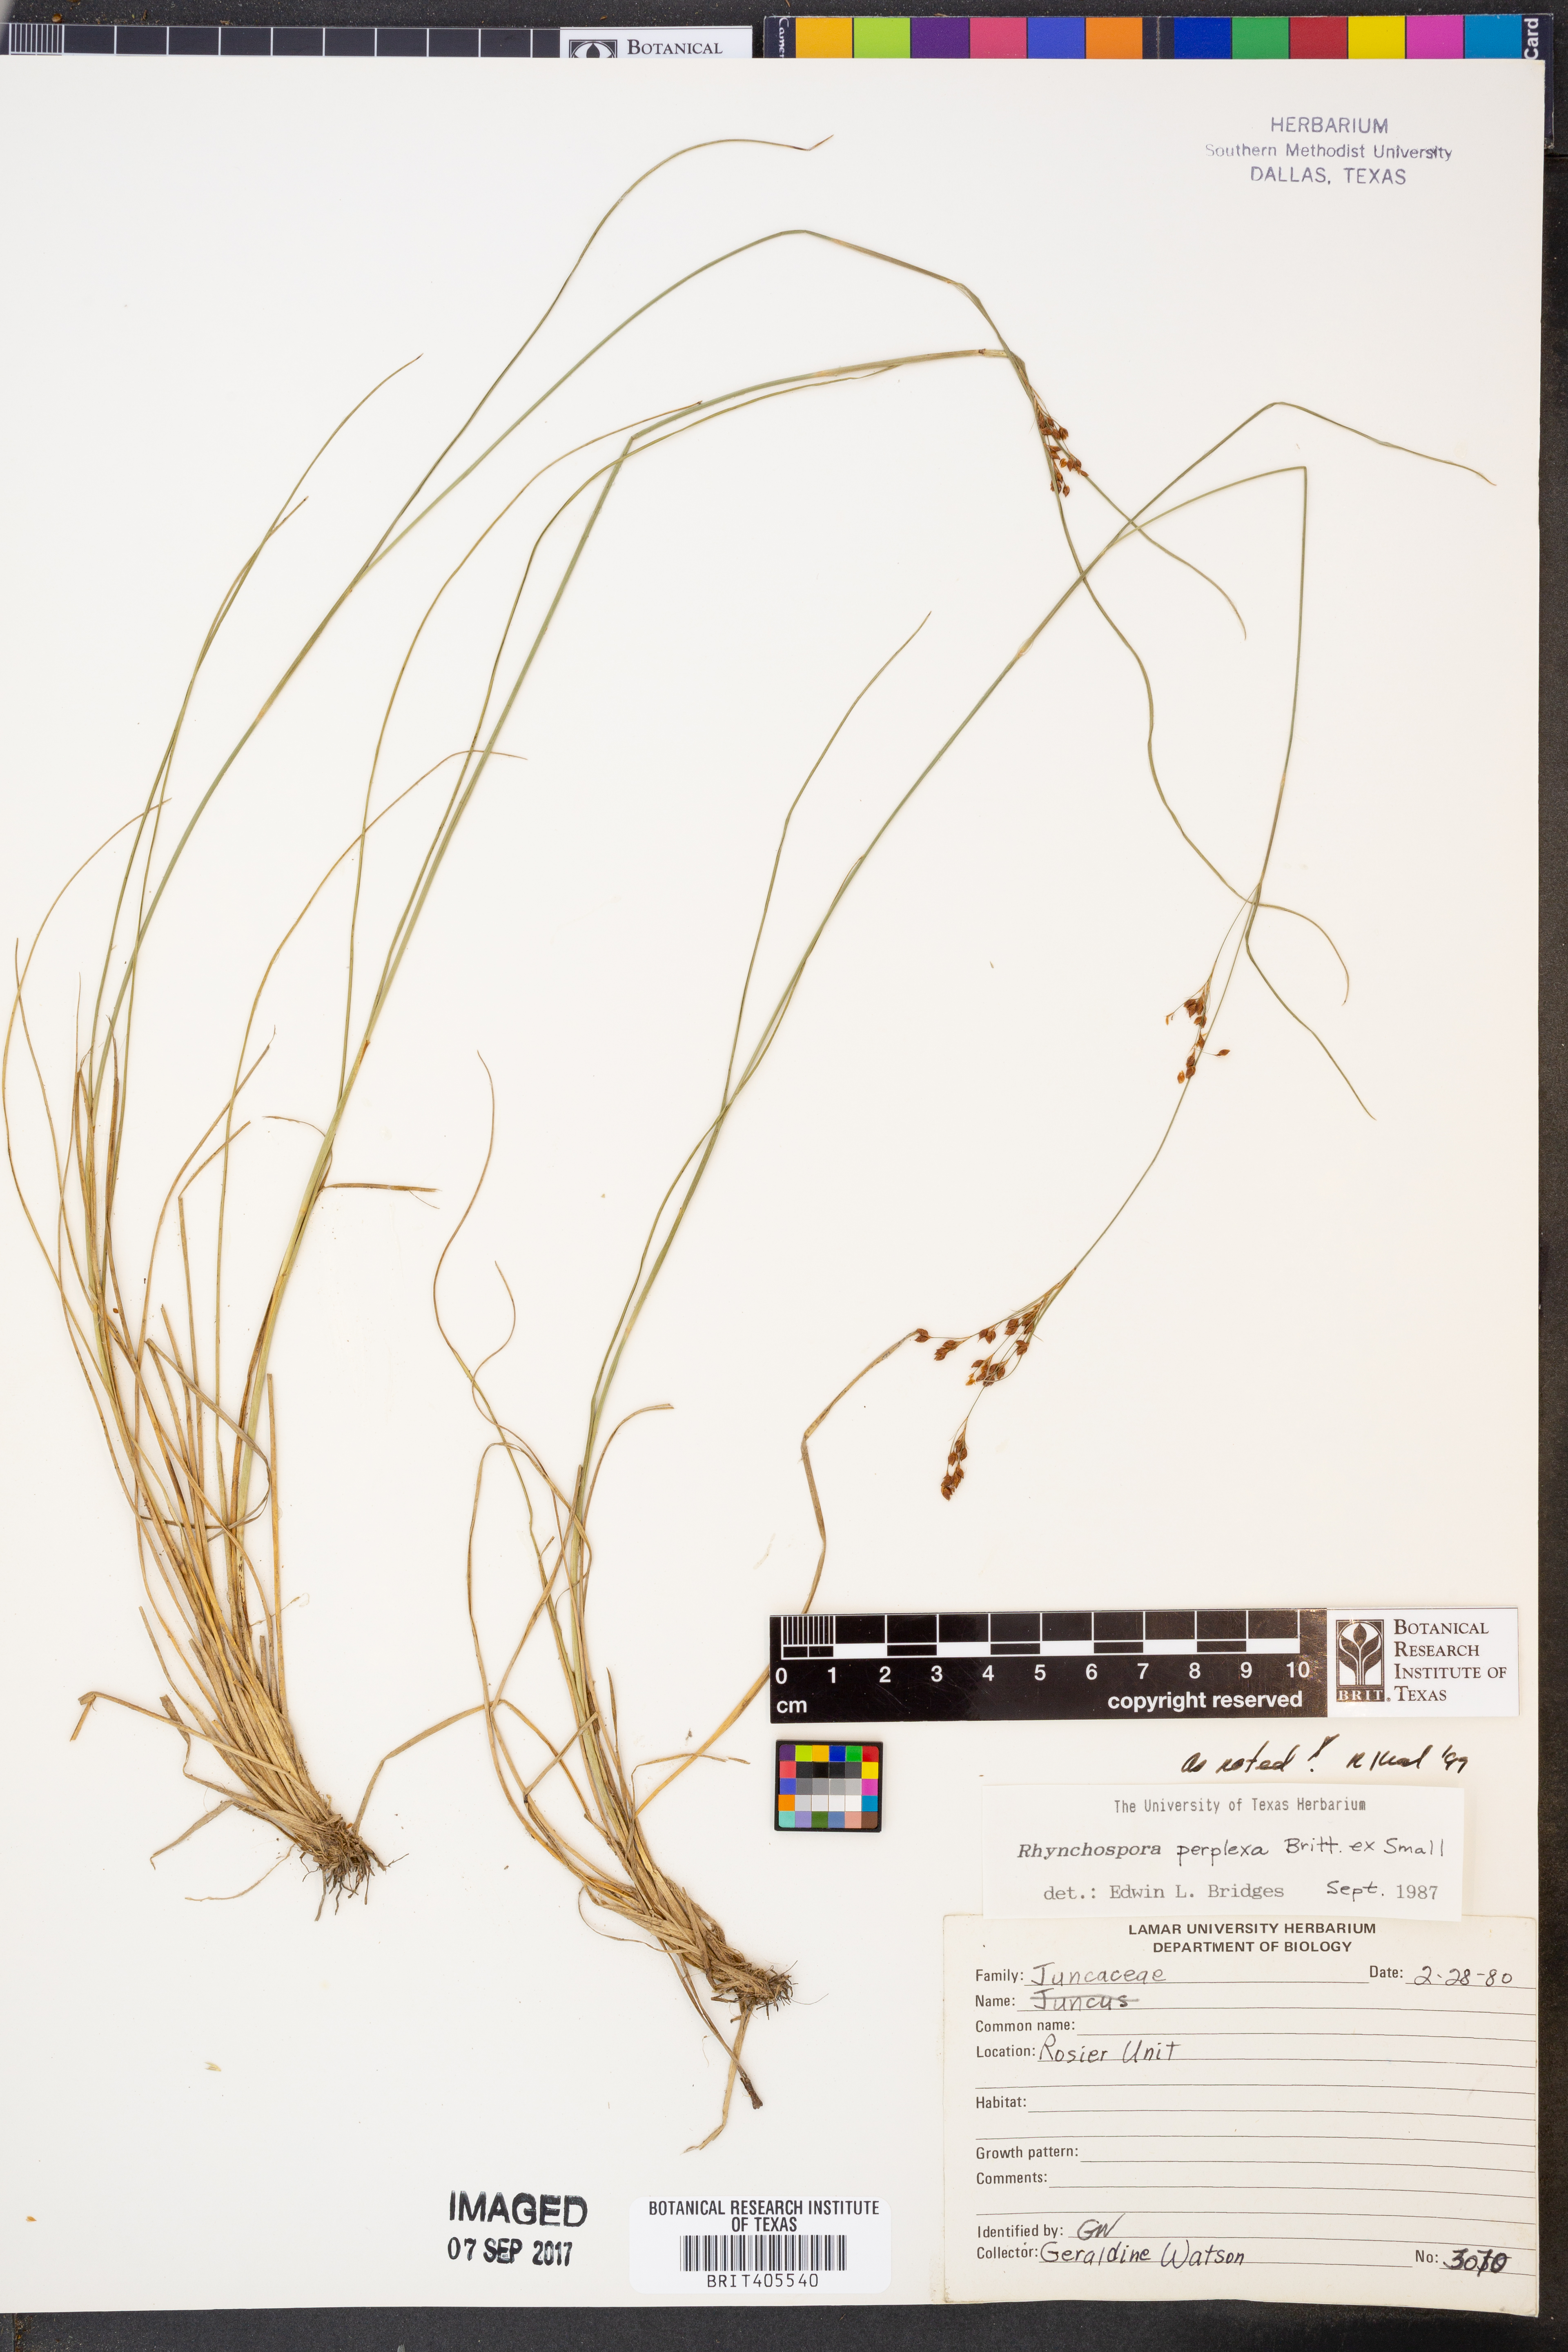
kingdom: Plantae
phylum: Tracheophyta
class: Liliopsida
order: Poales
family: Cyperaceae
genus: Rhynchospora
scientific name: Rhynchospora perplexa
